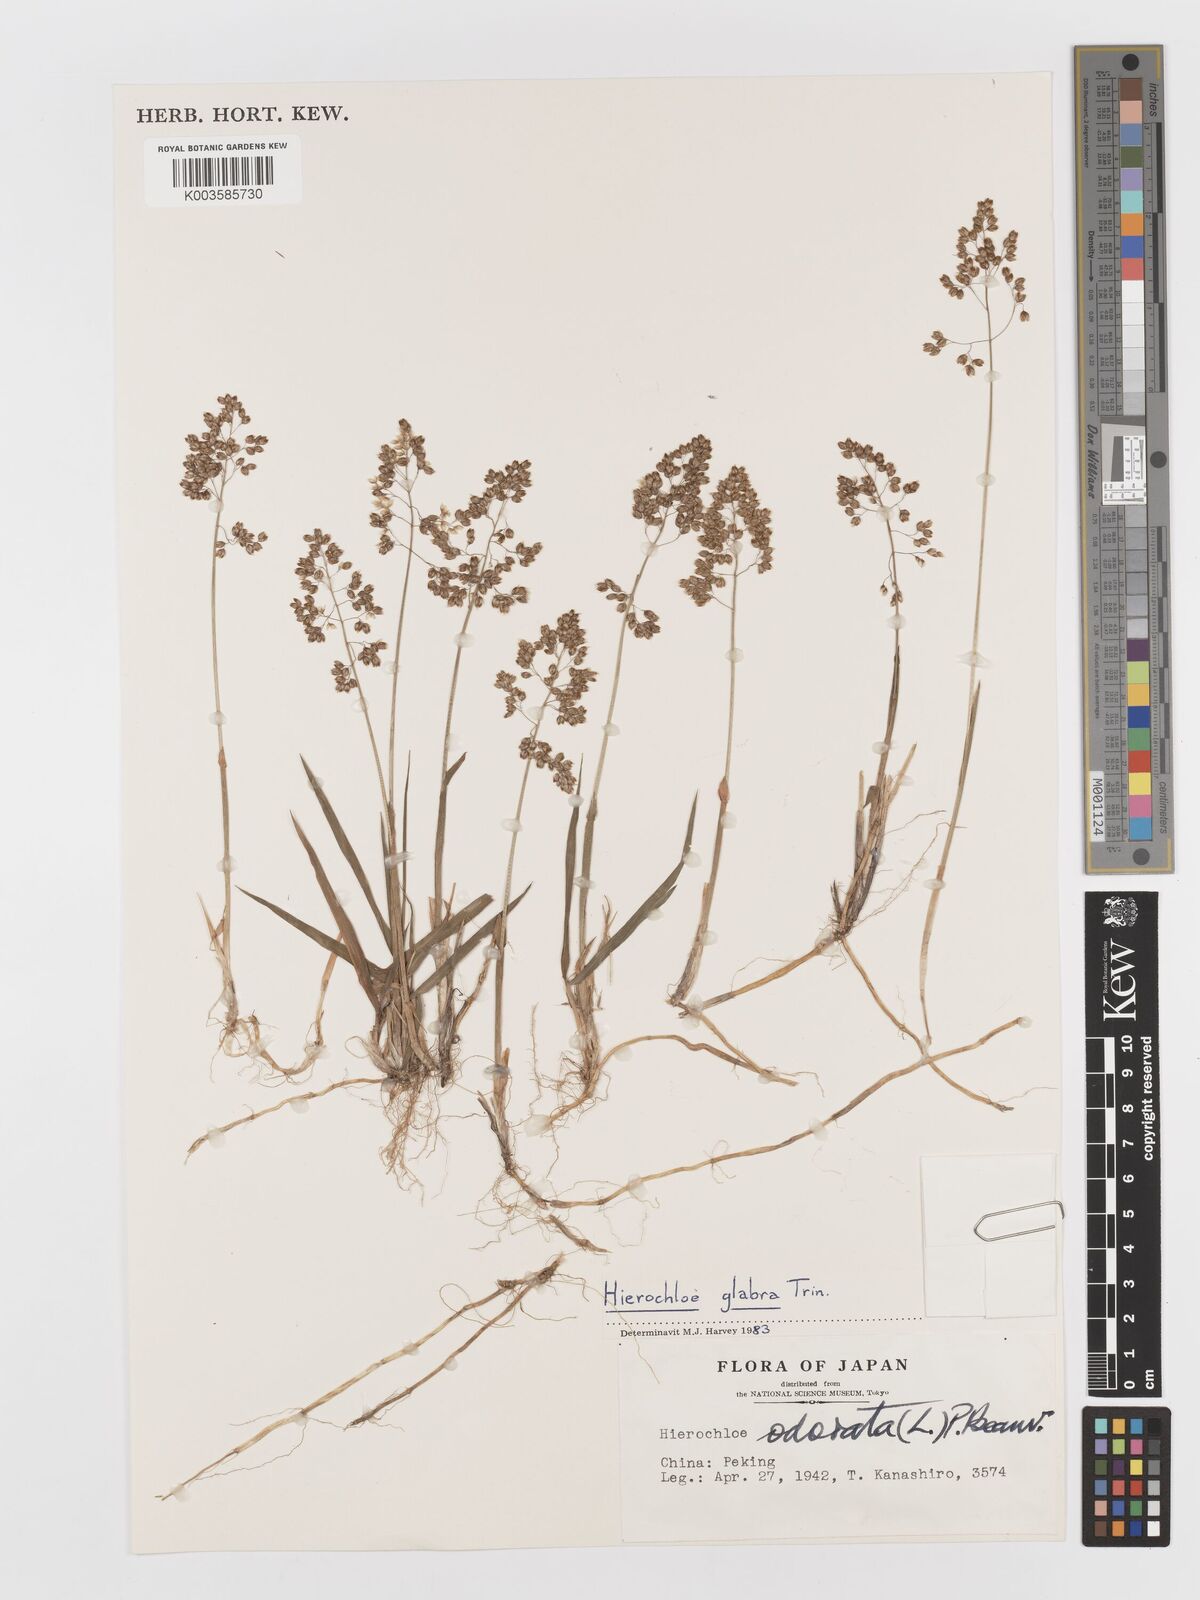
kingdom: Plantae
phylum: Tracheophyta
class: Liliopsida
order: Poales
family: Poaceae
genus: Anthoxanthum
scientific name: Anthoxanthum glabrum
